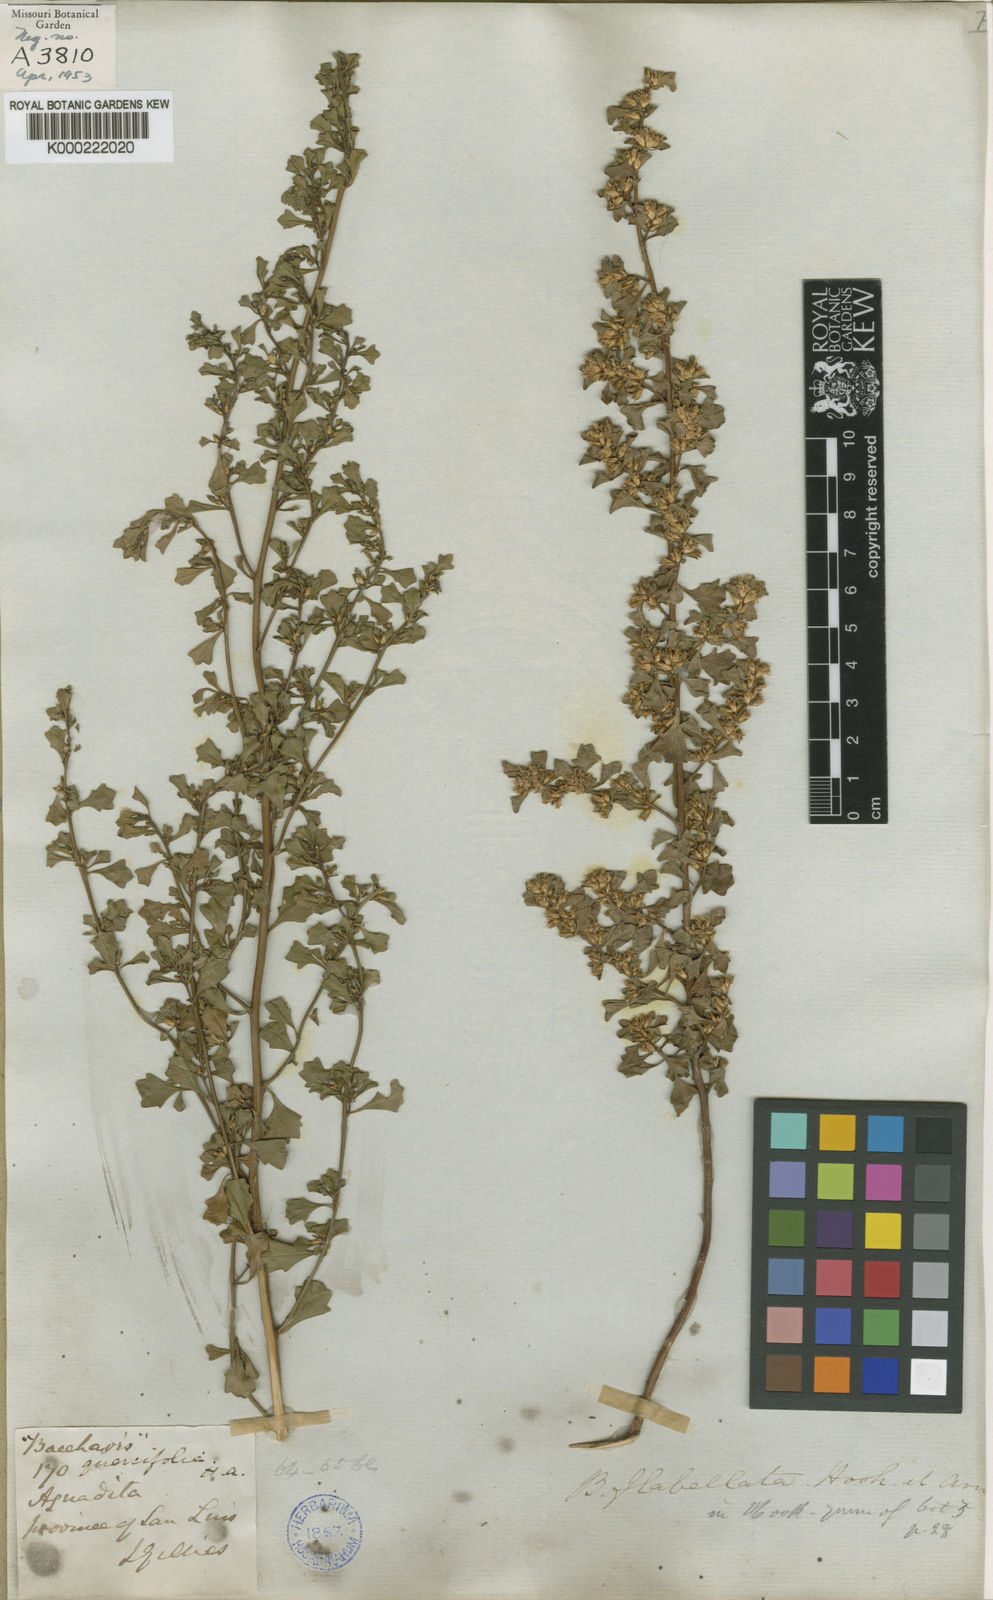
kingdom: Plantae
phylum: Tracheophyta
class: Magnoliopsida
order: Asterales
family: Asteraceae
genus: Baccharis
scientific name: Baccharis flabellata
